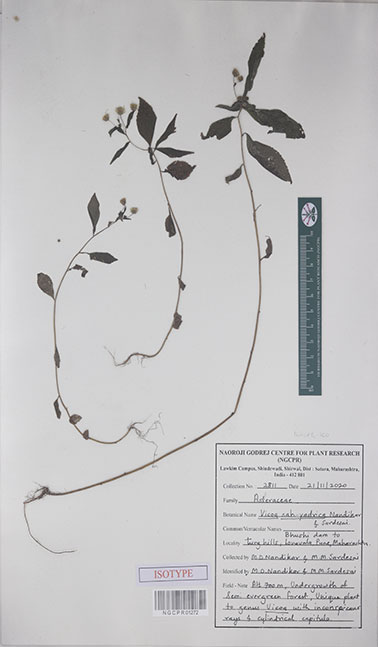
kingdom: Plantae
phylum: Tracheophyta
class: Magnoliopsida
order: Asterales
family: Asteraceae
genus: Vicoa
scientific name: Vicoa sahyadrica
